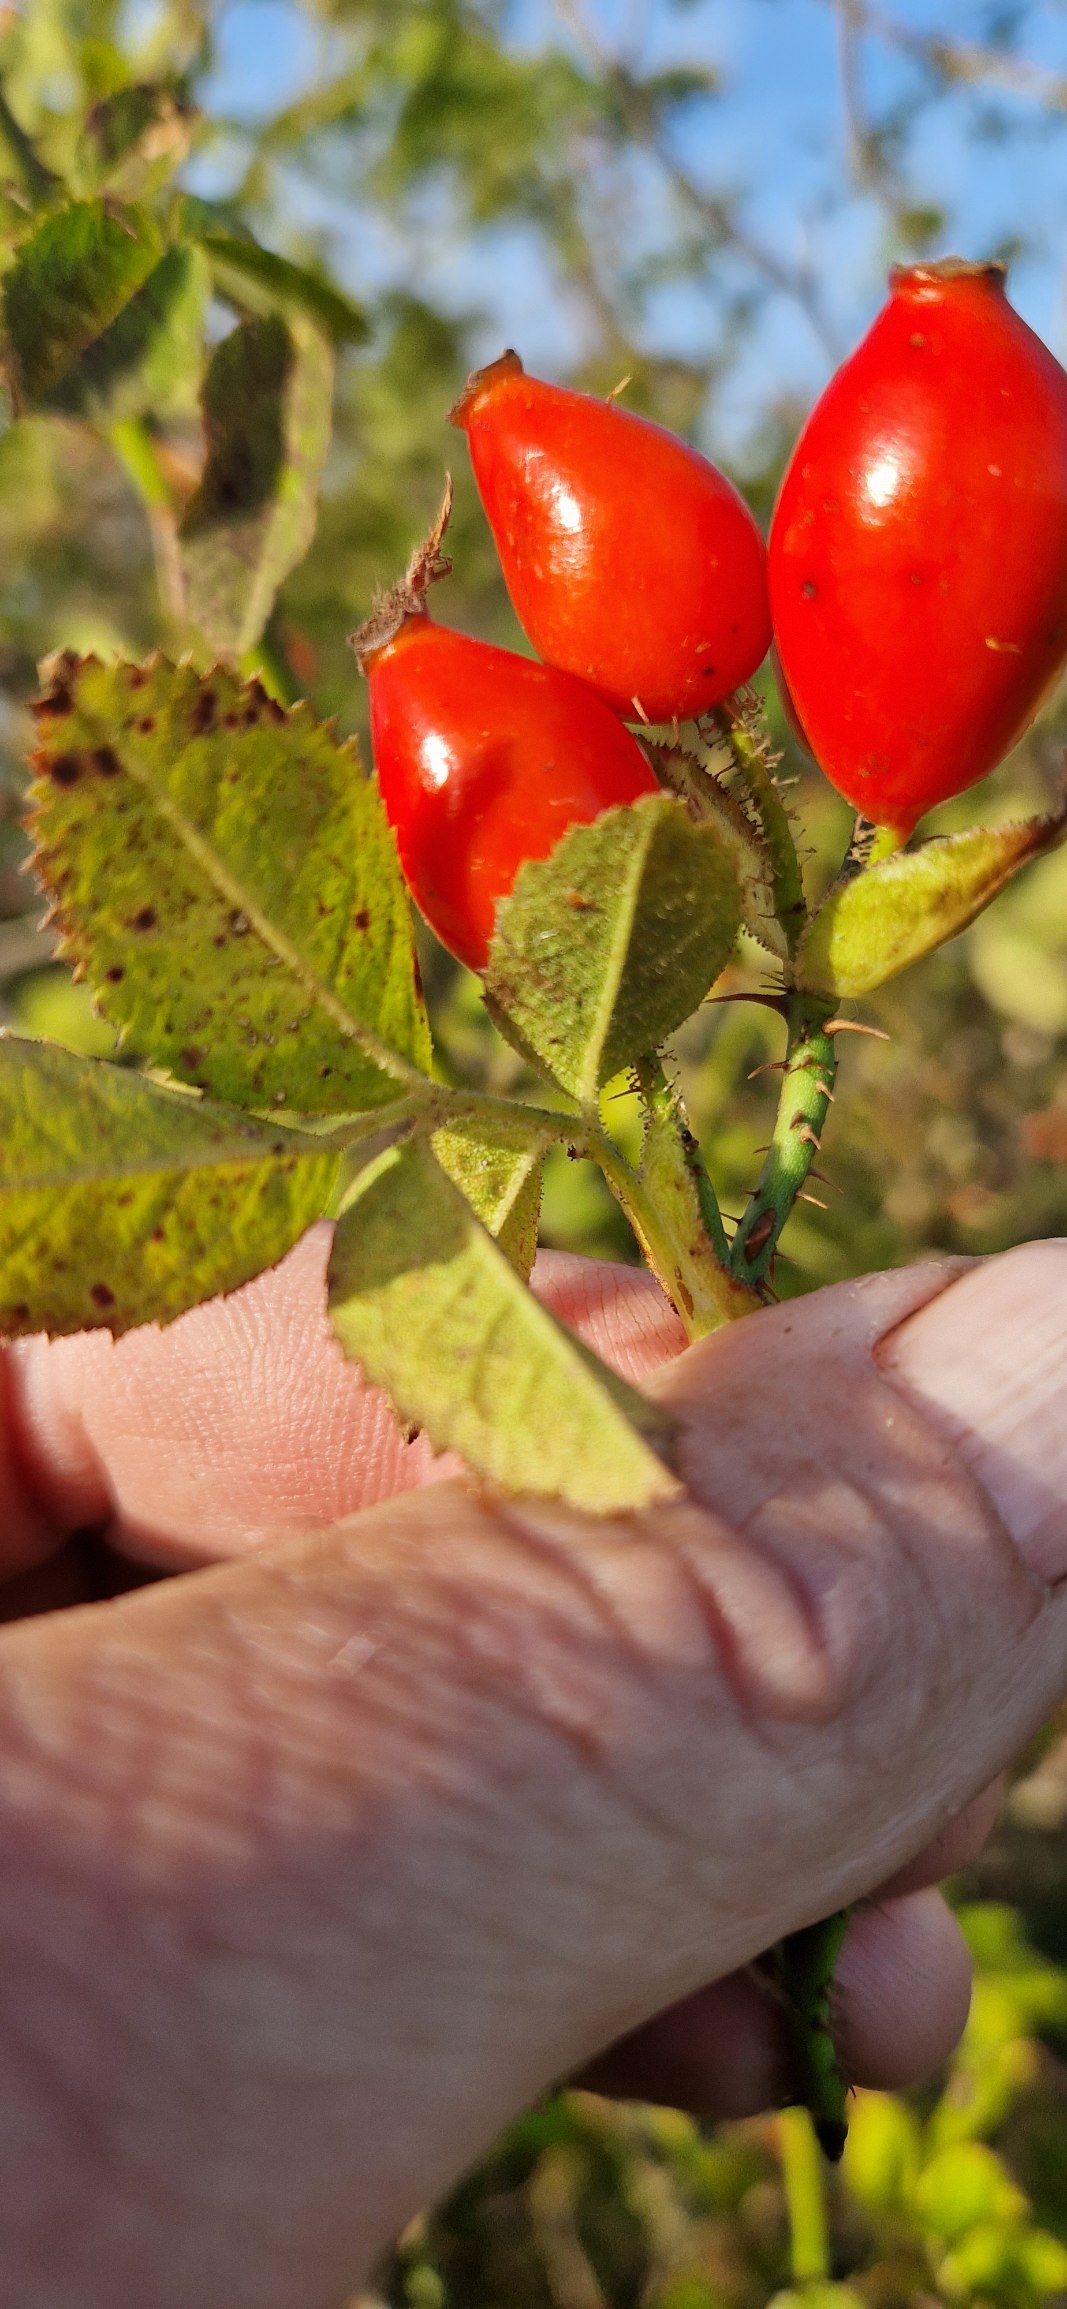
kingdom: Plantae
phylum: Tracheophyta
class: Magnoliopsida
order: Rosales
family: Rosaceae
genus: Rosa
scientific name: Rosa rubiginosa
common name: Æble-rose
